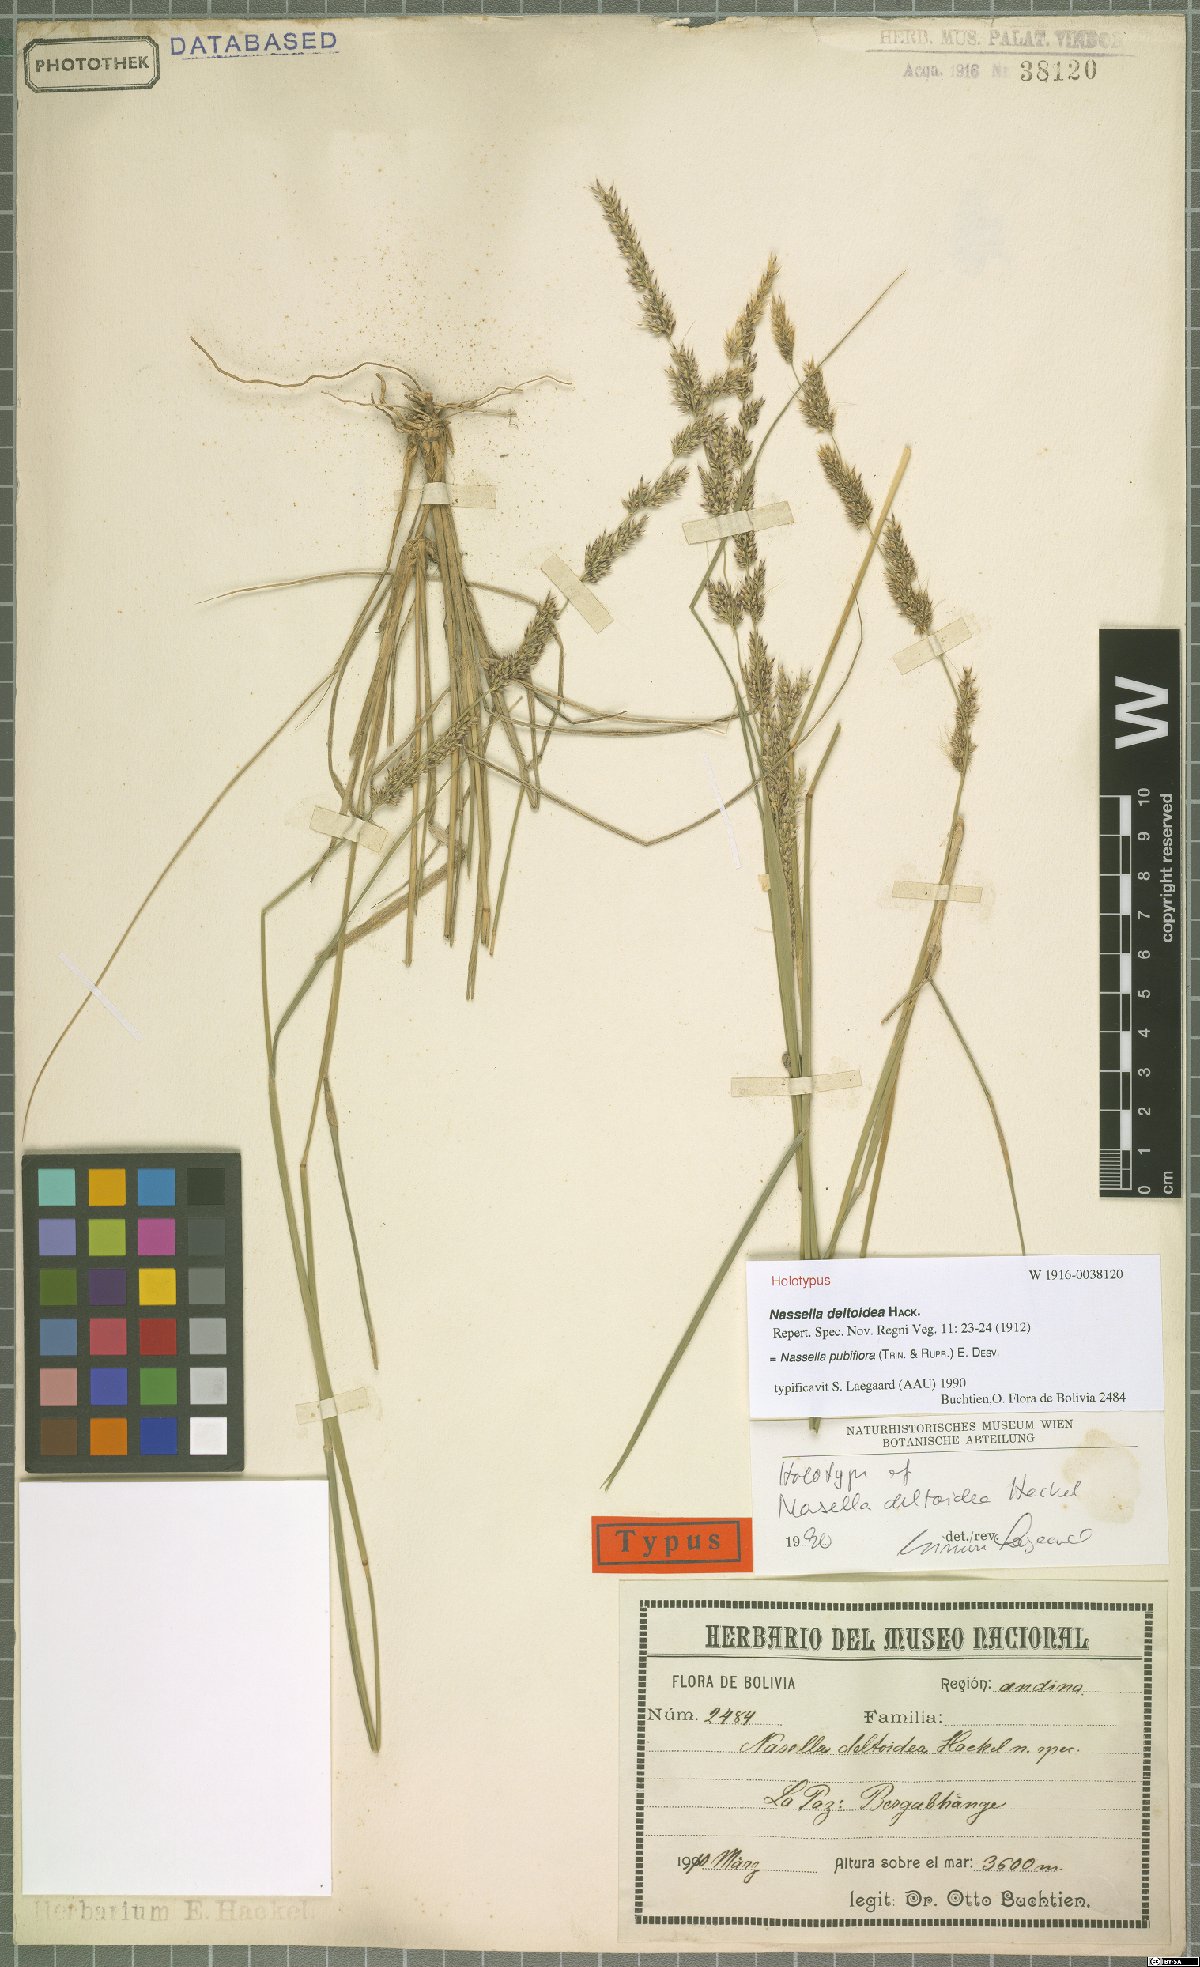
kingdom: Plantae
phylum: Tracheophyta
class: Liliopsida
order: Poales
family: Poaceae
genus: Nassella
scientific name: Nassella pubiflora
